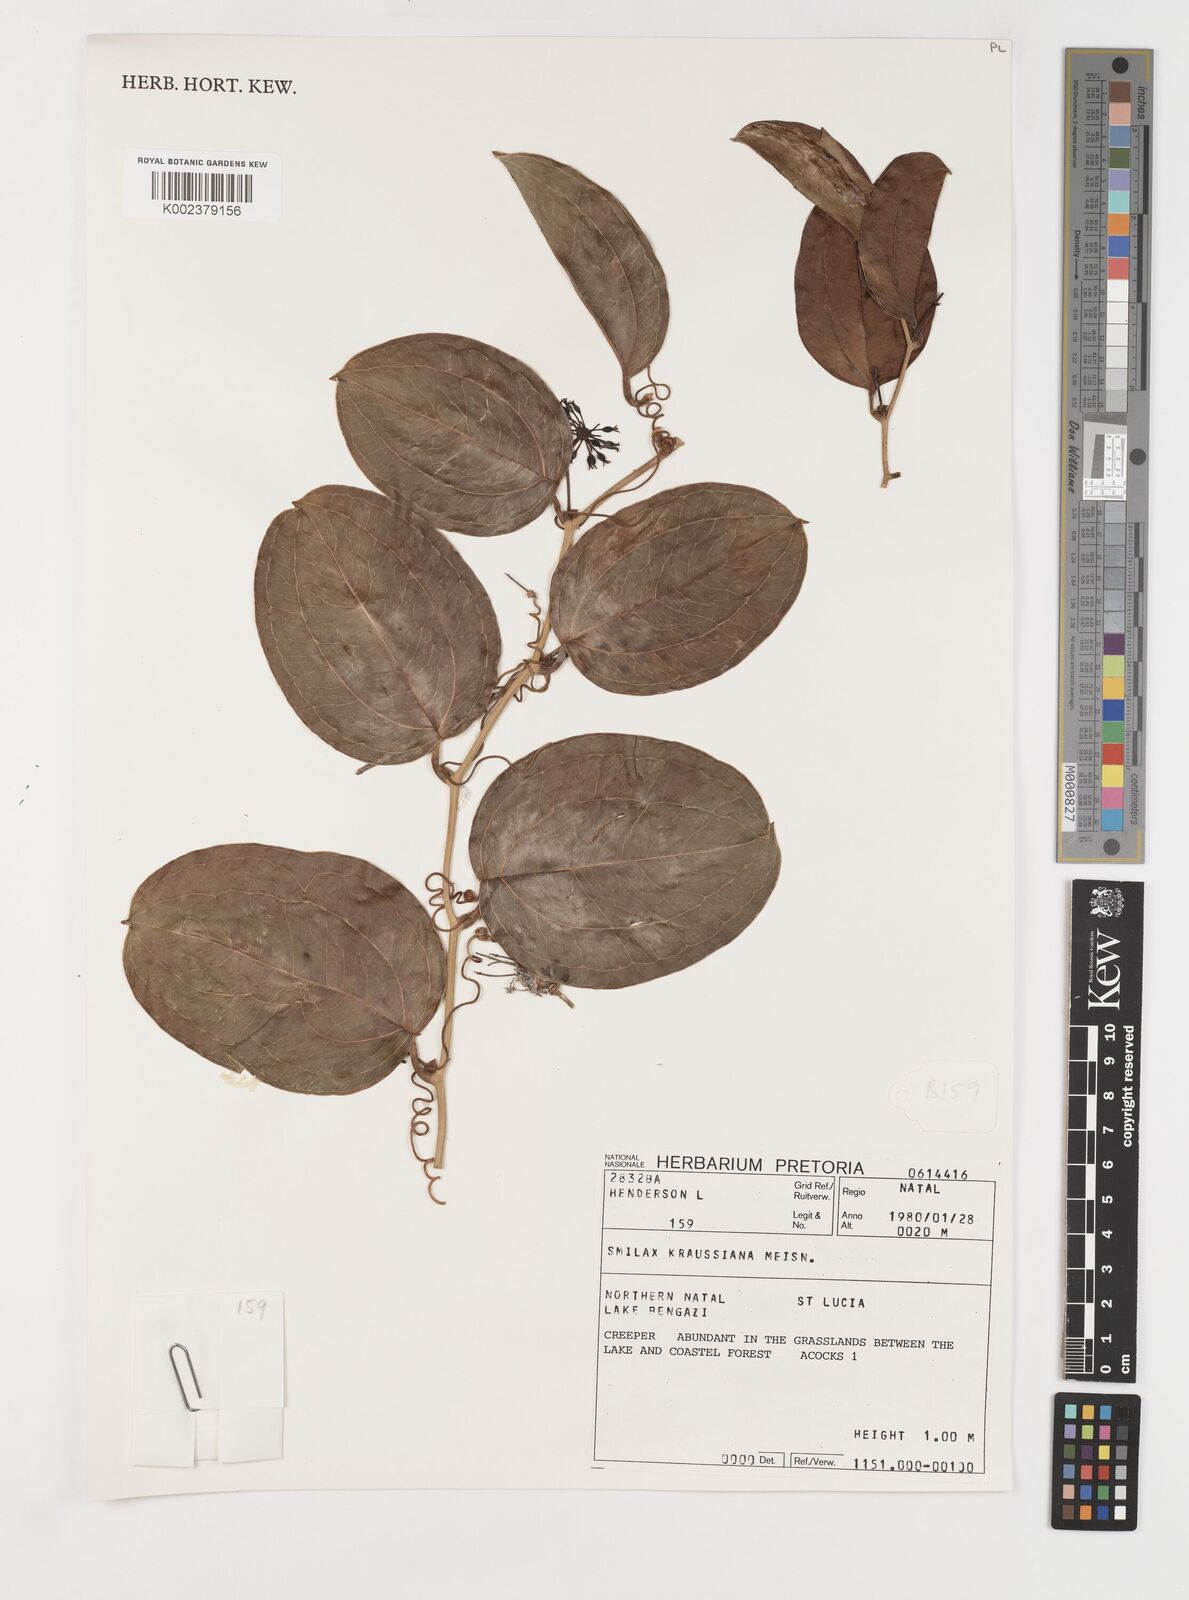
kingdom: Plantae
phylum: Tracheophyta
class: Liliopsida
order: Liliales
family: Smilacaceae
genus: Smilax
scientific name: Smilax anceps
